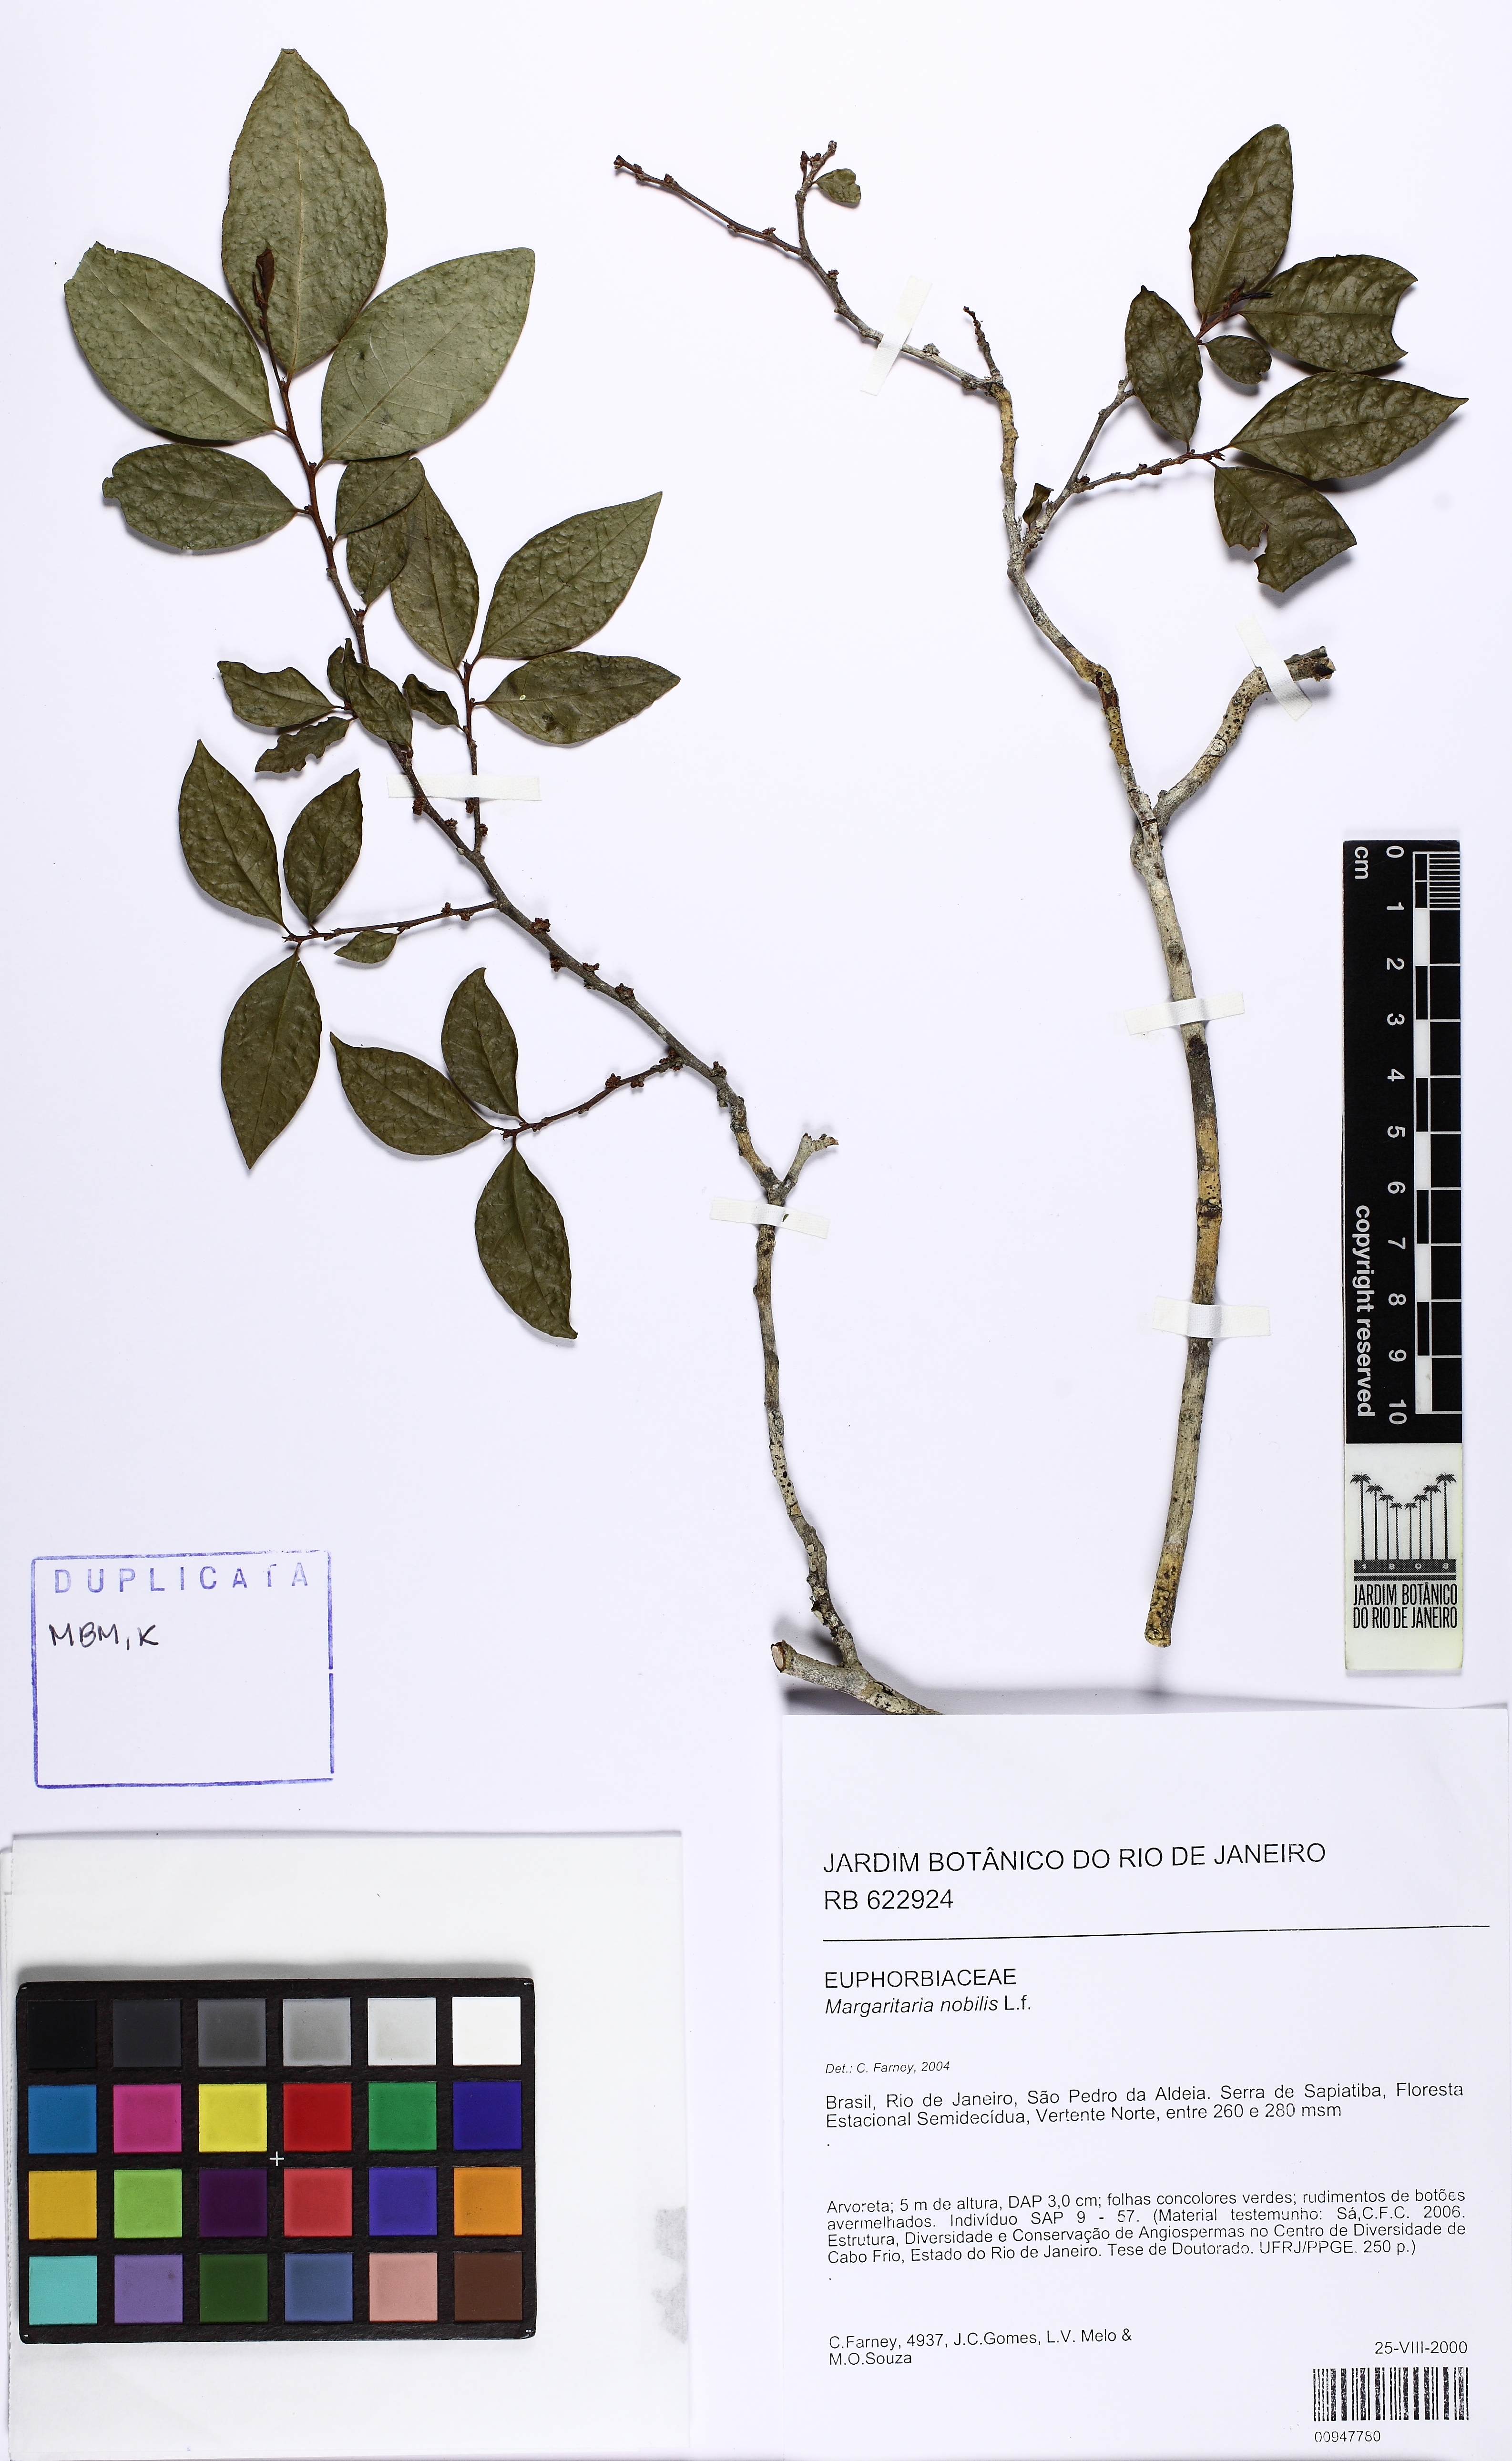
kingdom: Plantae
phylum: Tracheophyta
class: Magnoliopsida
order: Malpighiales
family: Phyllanthaceae
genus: Margaritaria
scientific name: Margaritaria nobilis
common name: Goose berry
